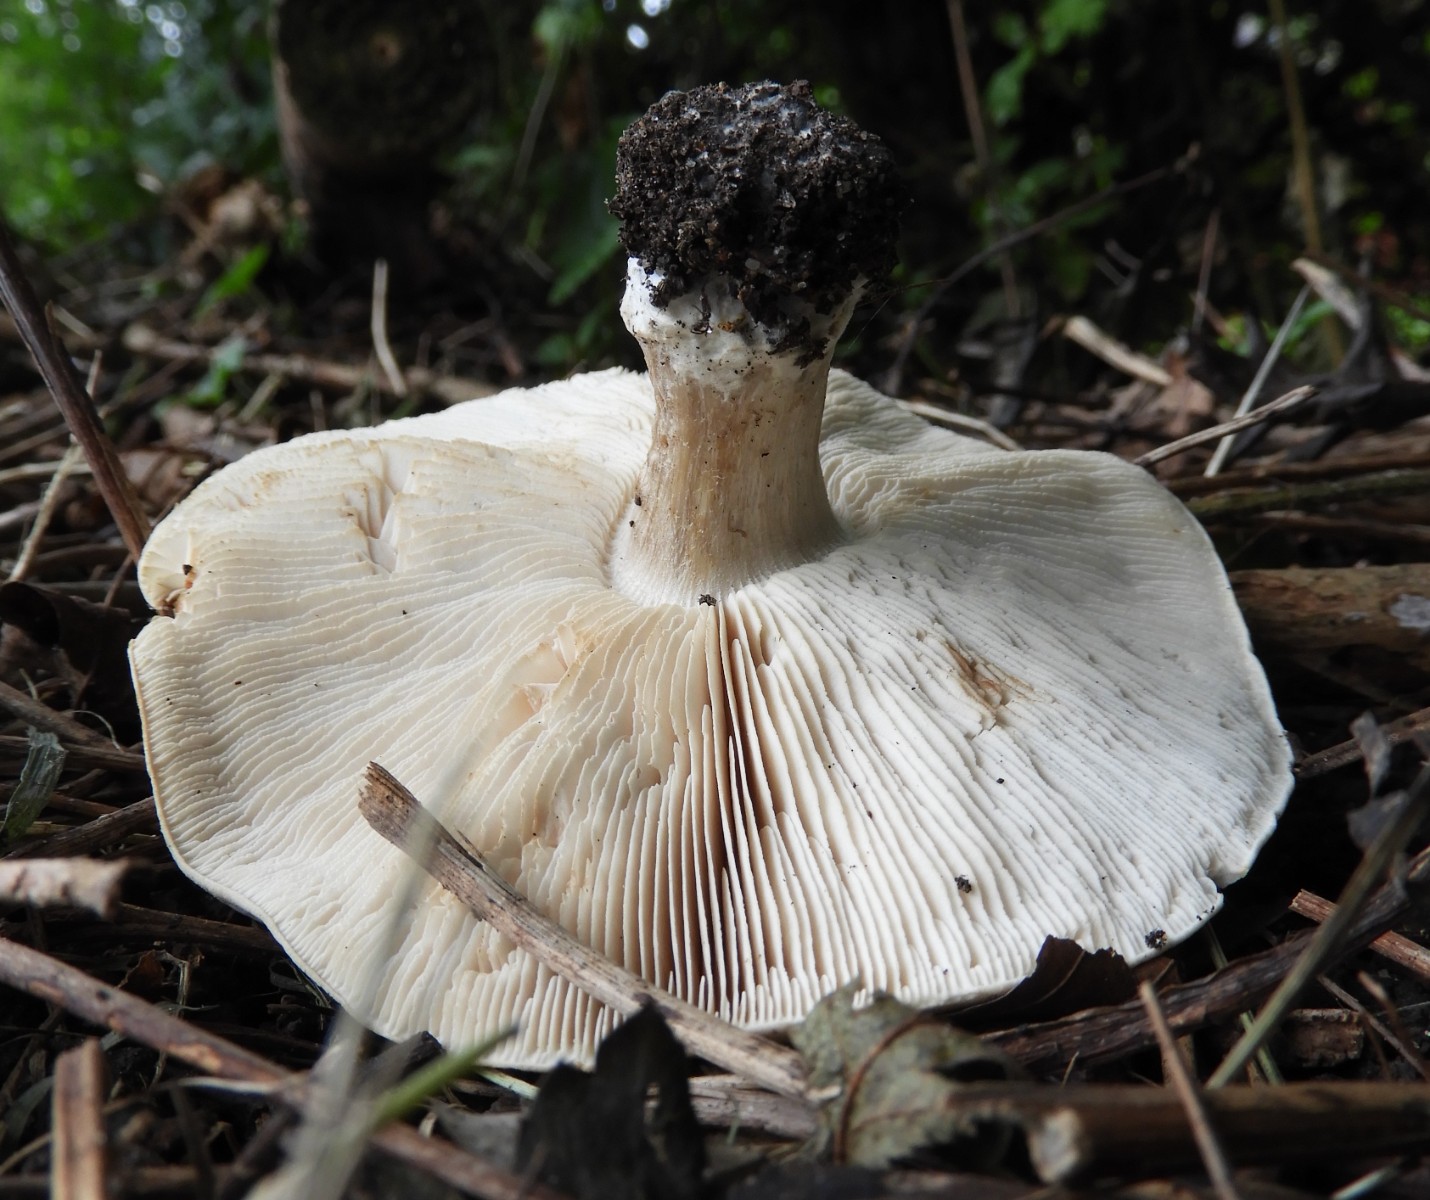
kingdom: Fungi
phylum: Basidiomycota
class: Agaricomycetes
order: Agaricales
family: Entolomataceae
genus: Clitopilus
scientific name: Clitopilus prunulus
